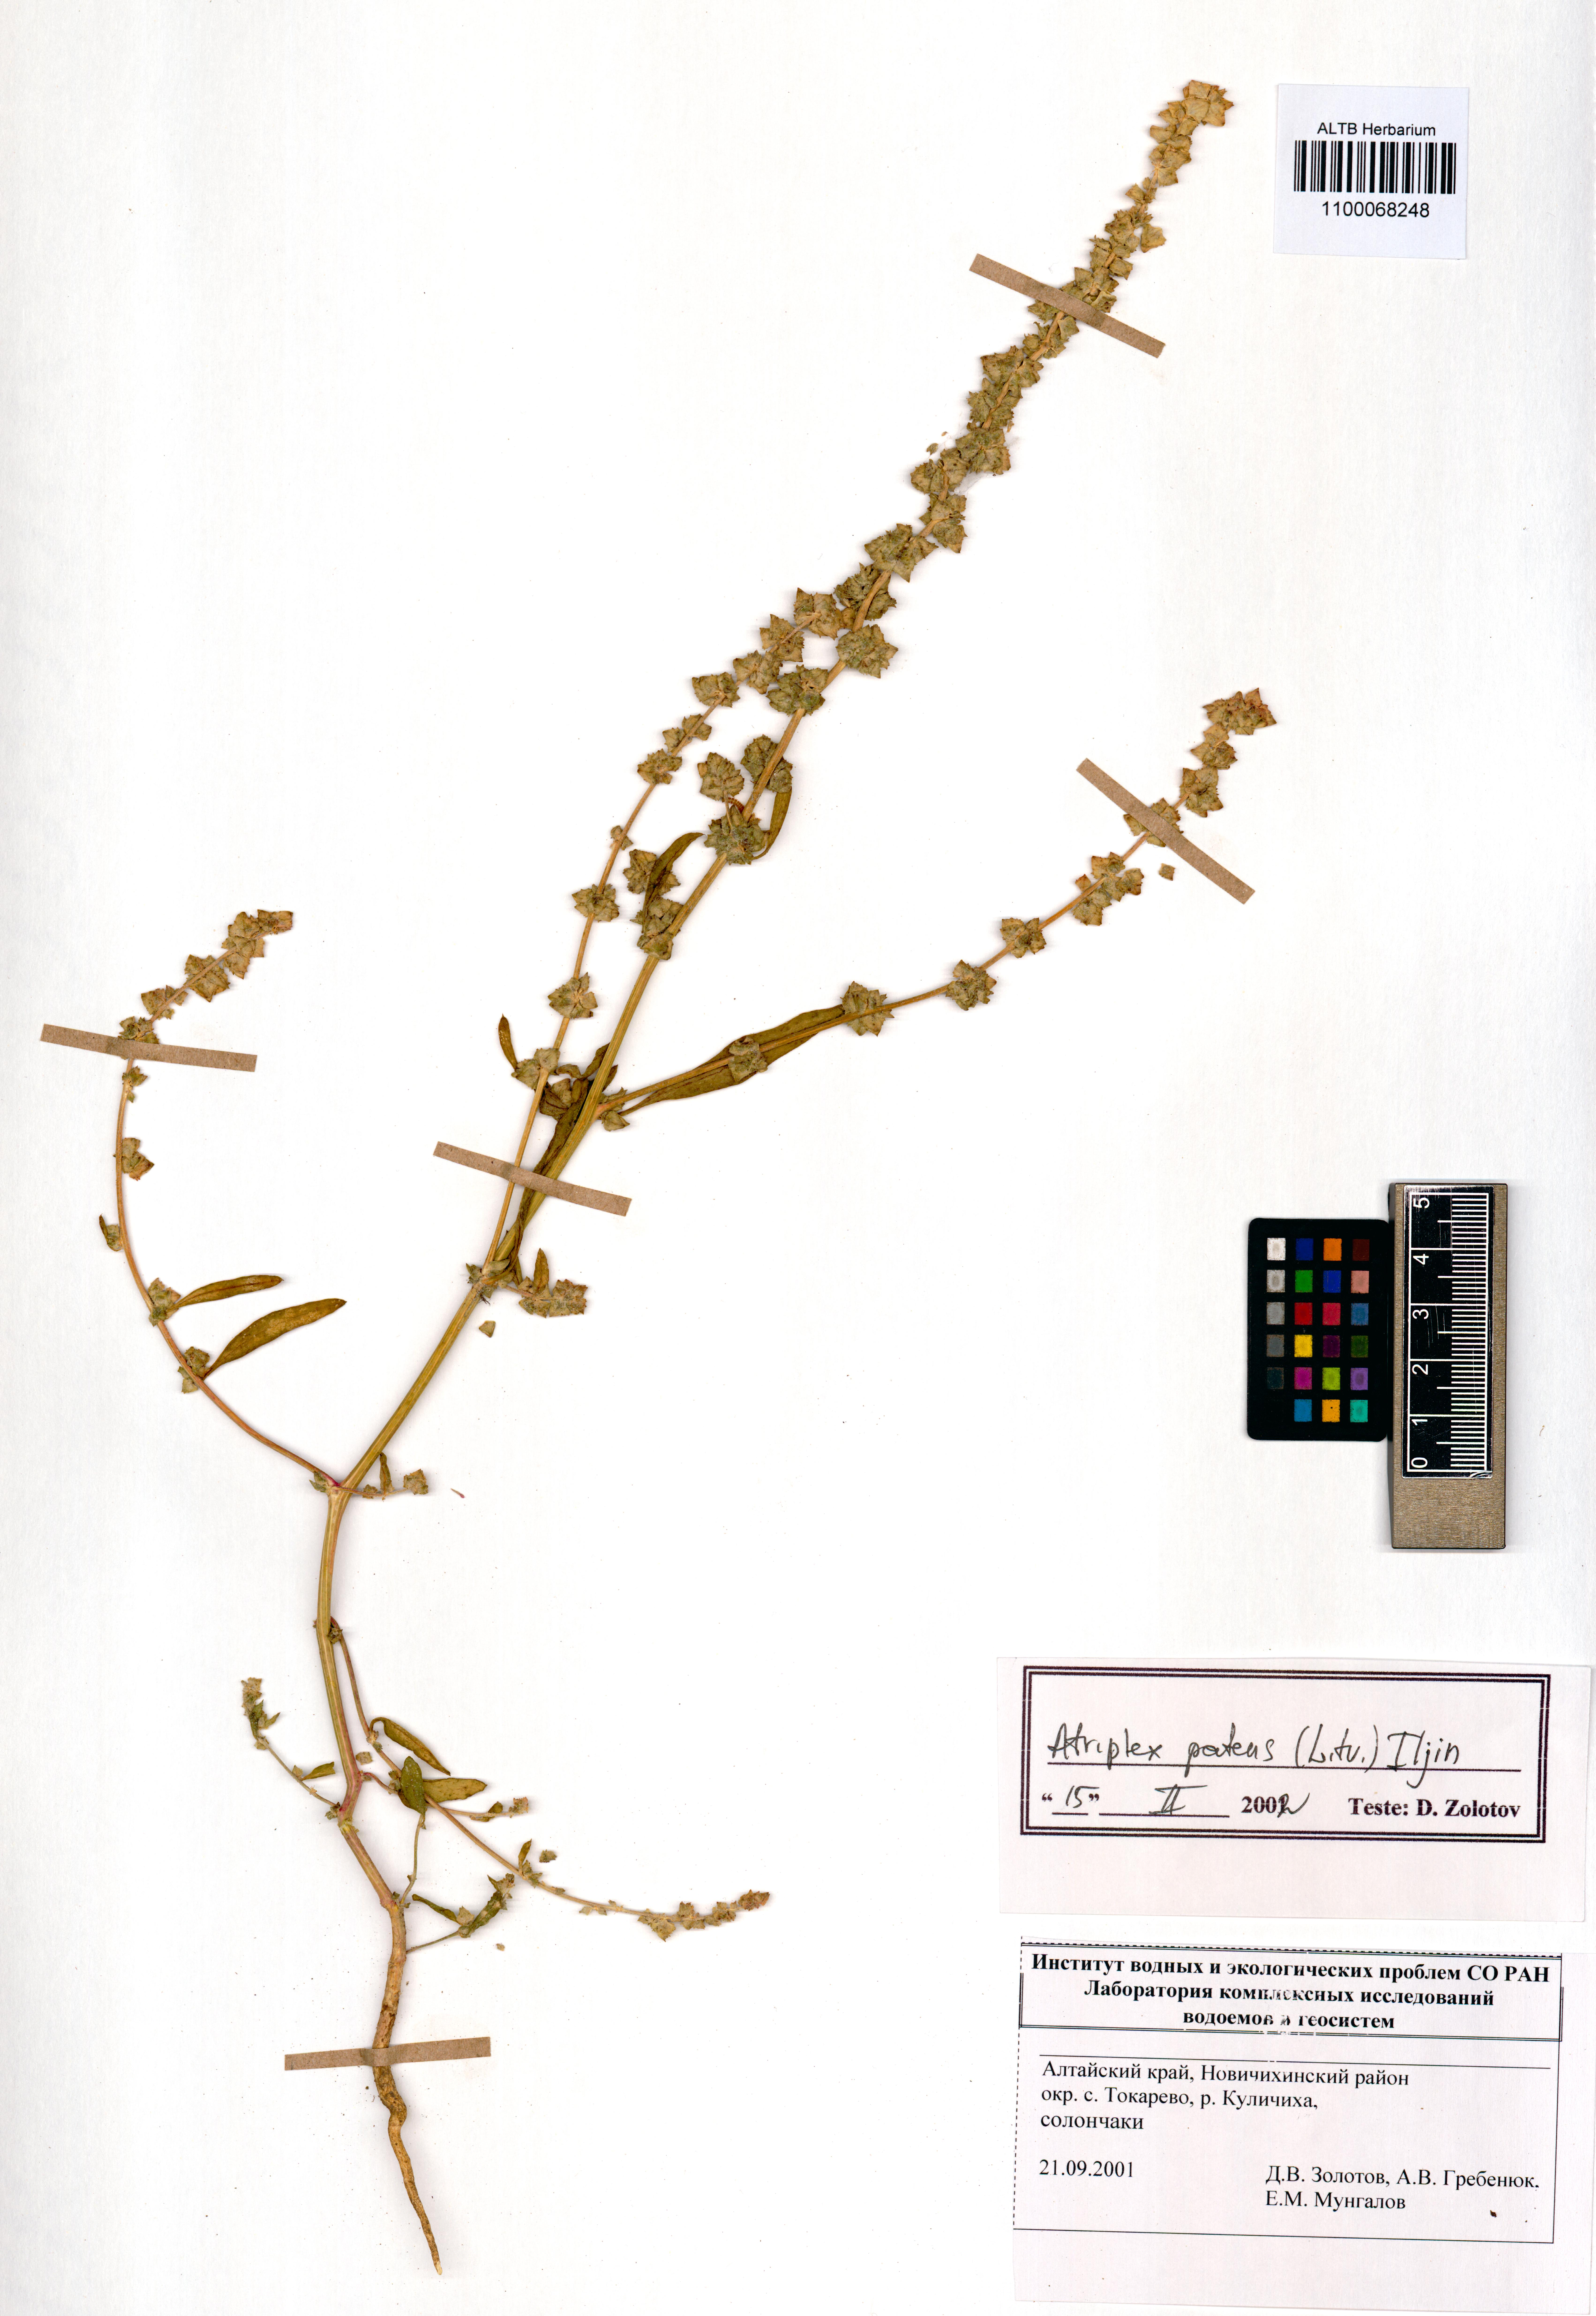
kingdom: Plantae
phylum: Tracheophyta
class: Magnoliopsida
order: Caryophyllales
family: Amaranthaceae
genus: Atriplex
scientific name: Atriplex patens
